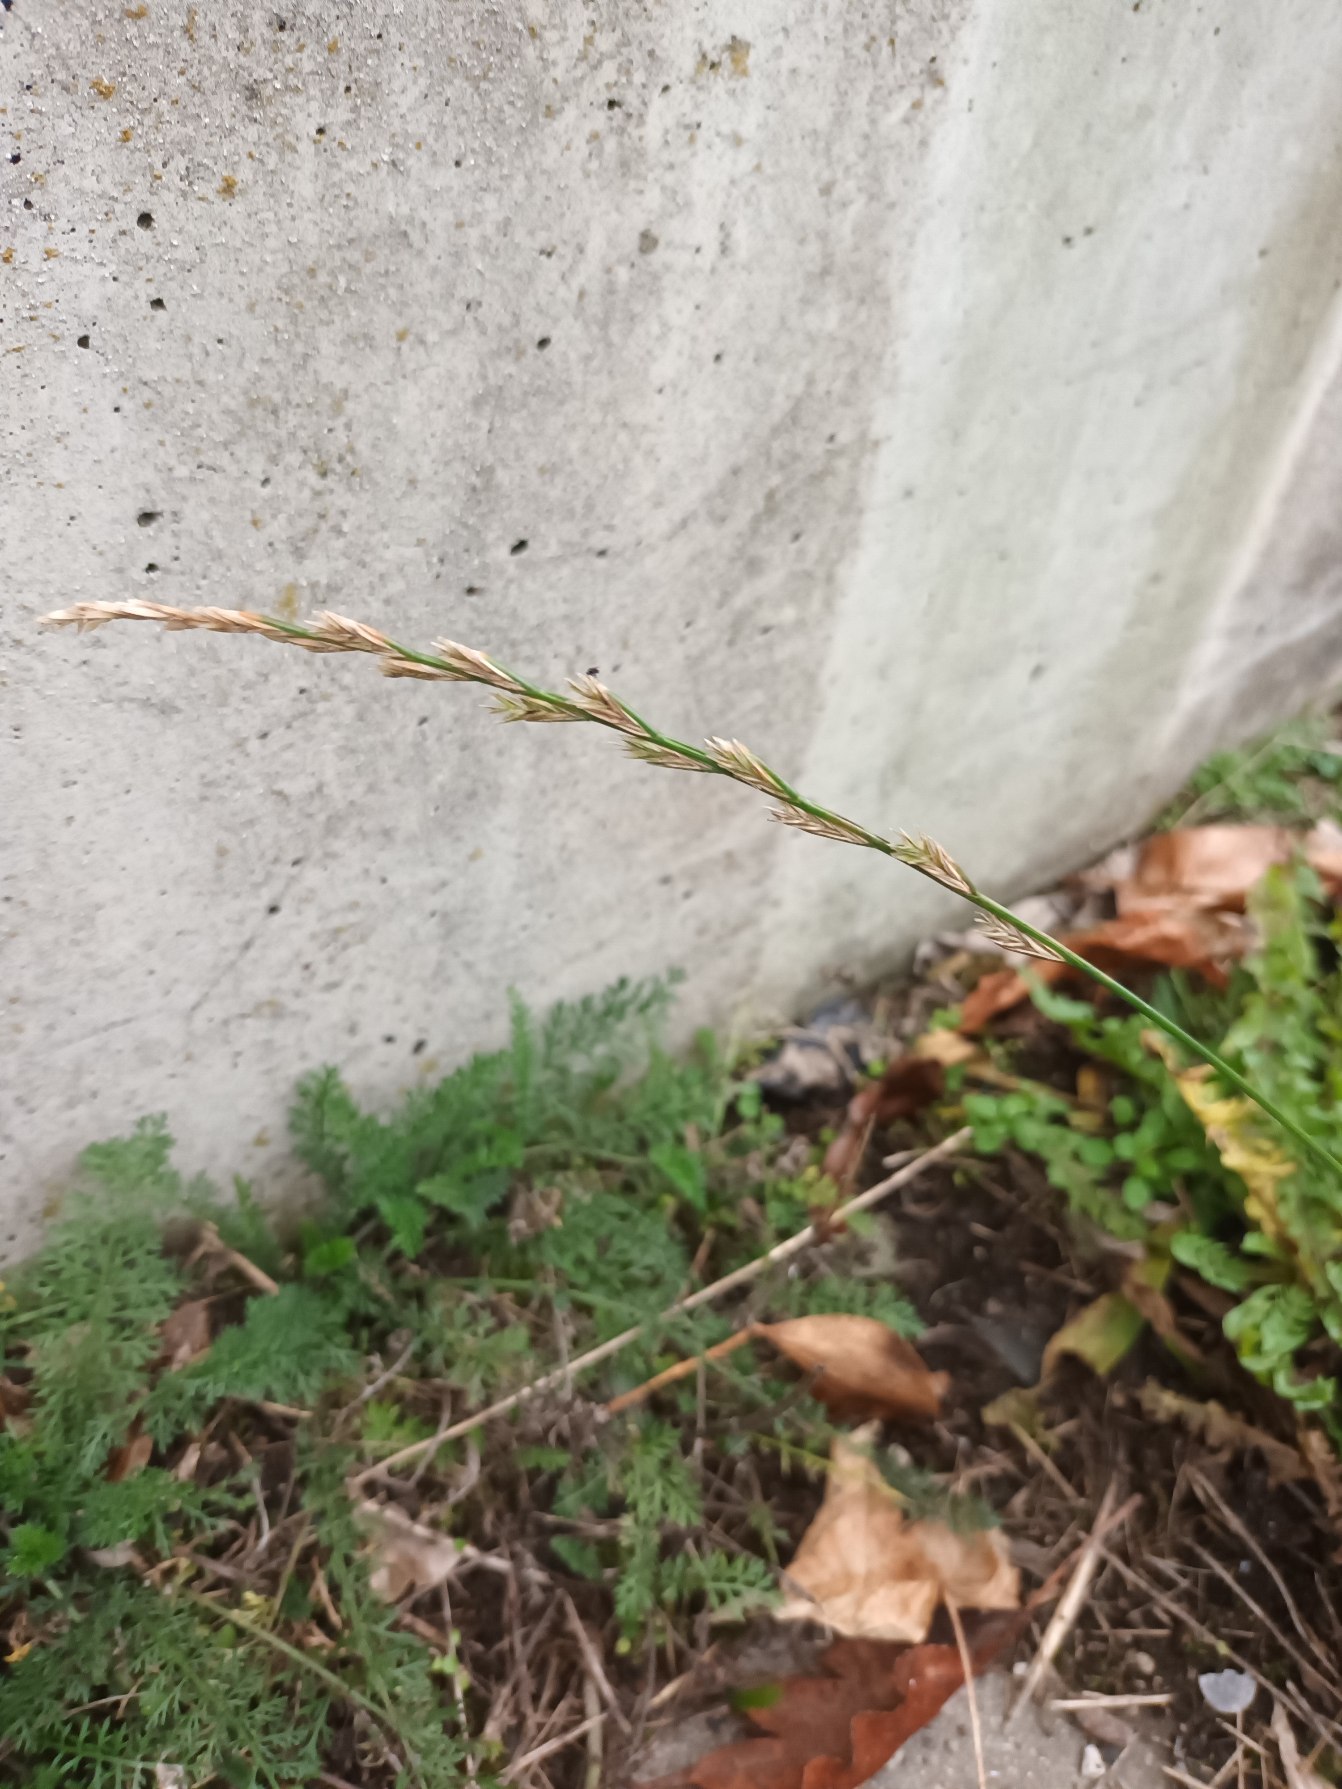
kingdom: Plantae
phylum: Tracheophyta
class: Liliopsida
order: Poales
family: Poaceae
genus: Lolium
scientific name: Lolium perenne
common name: Almindelig rajgræs
